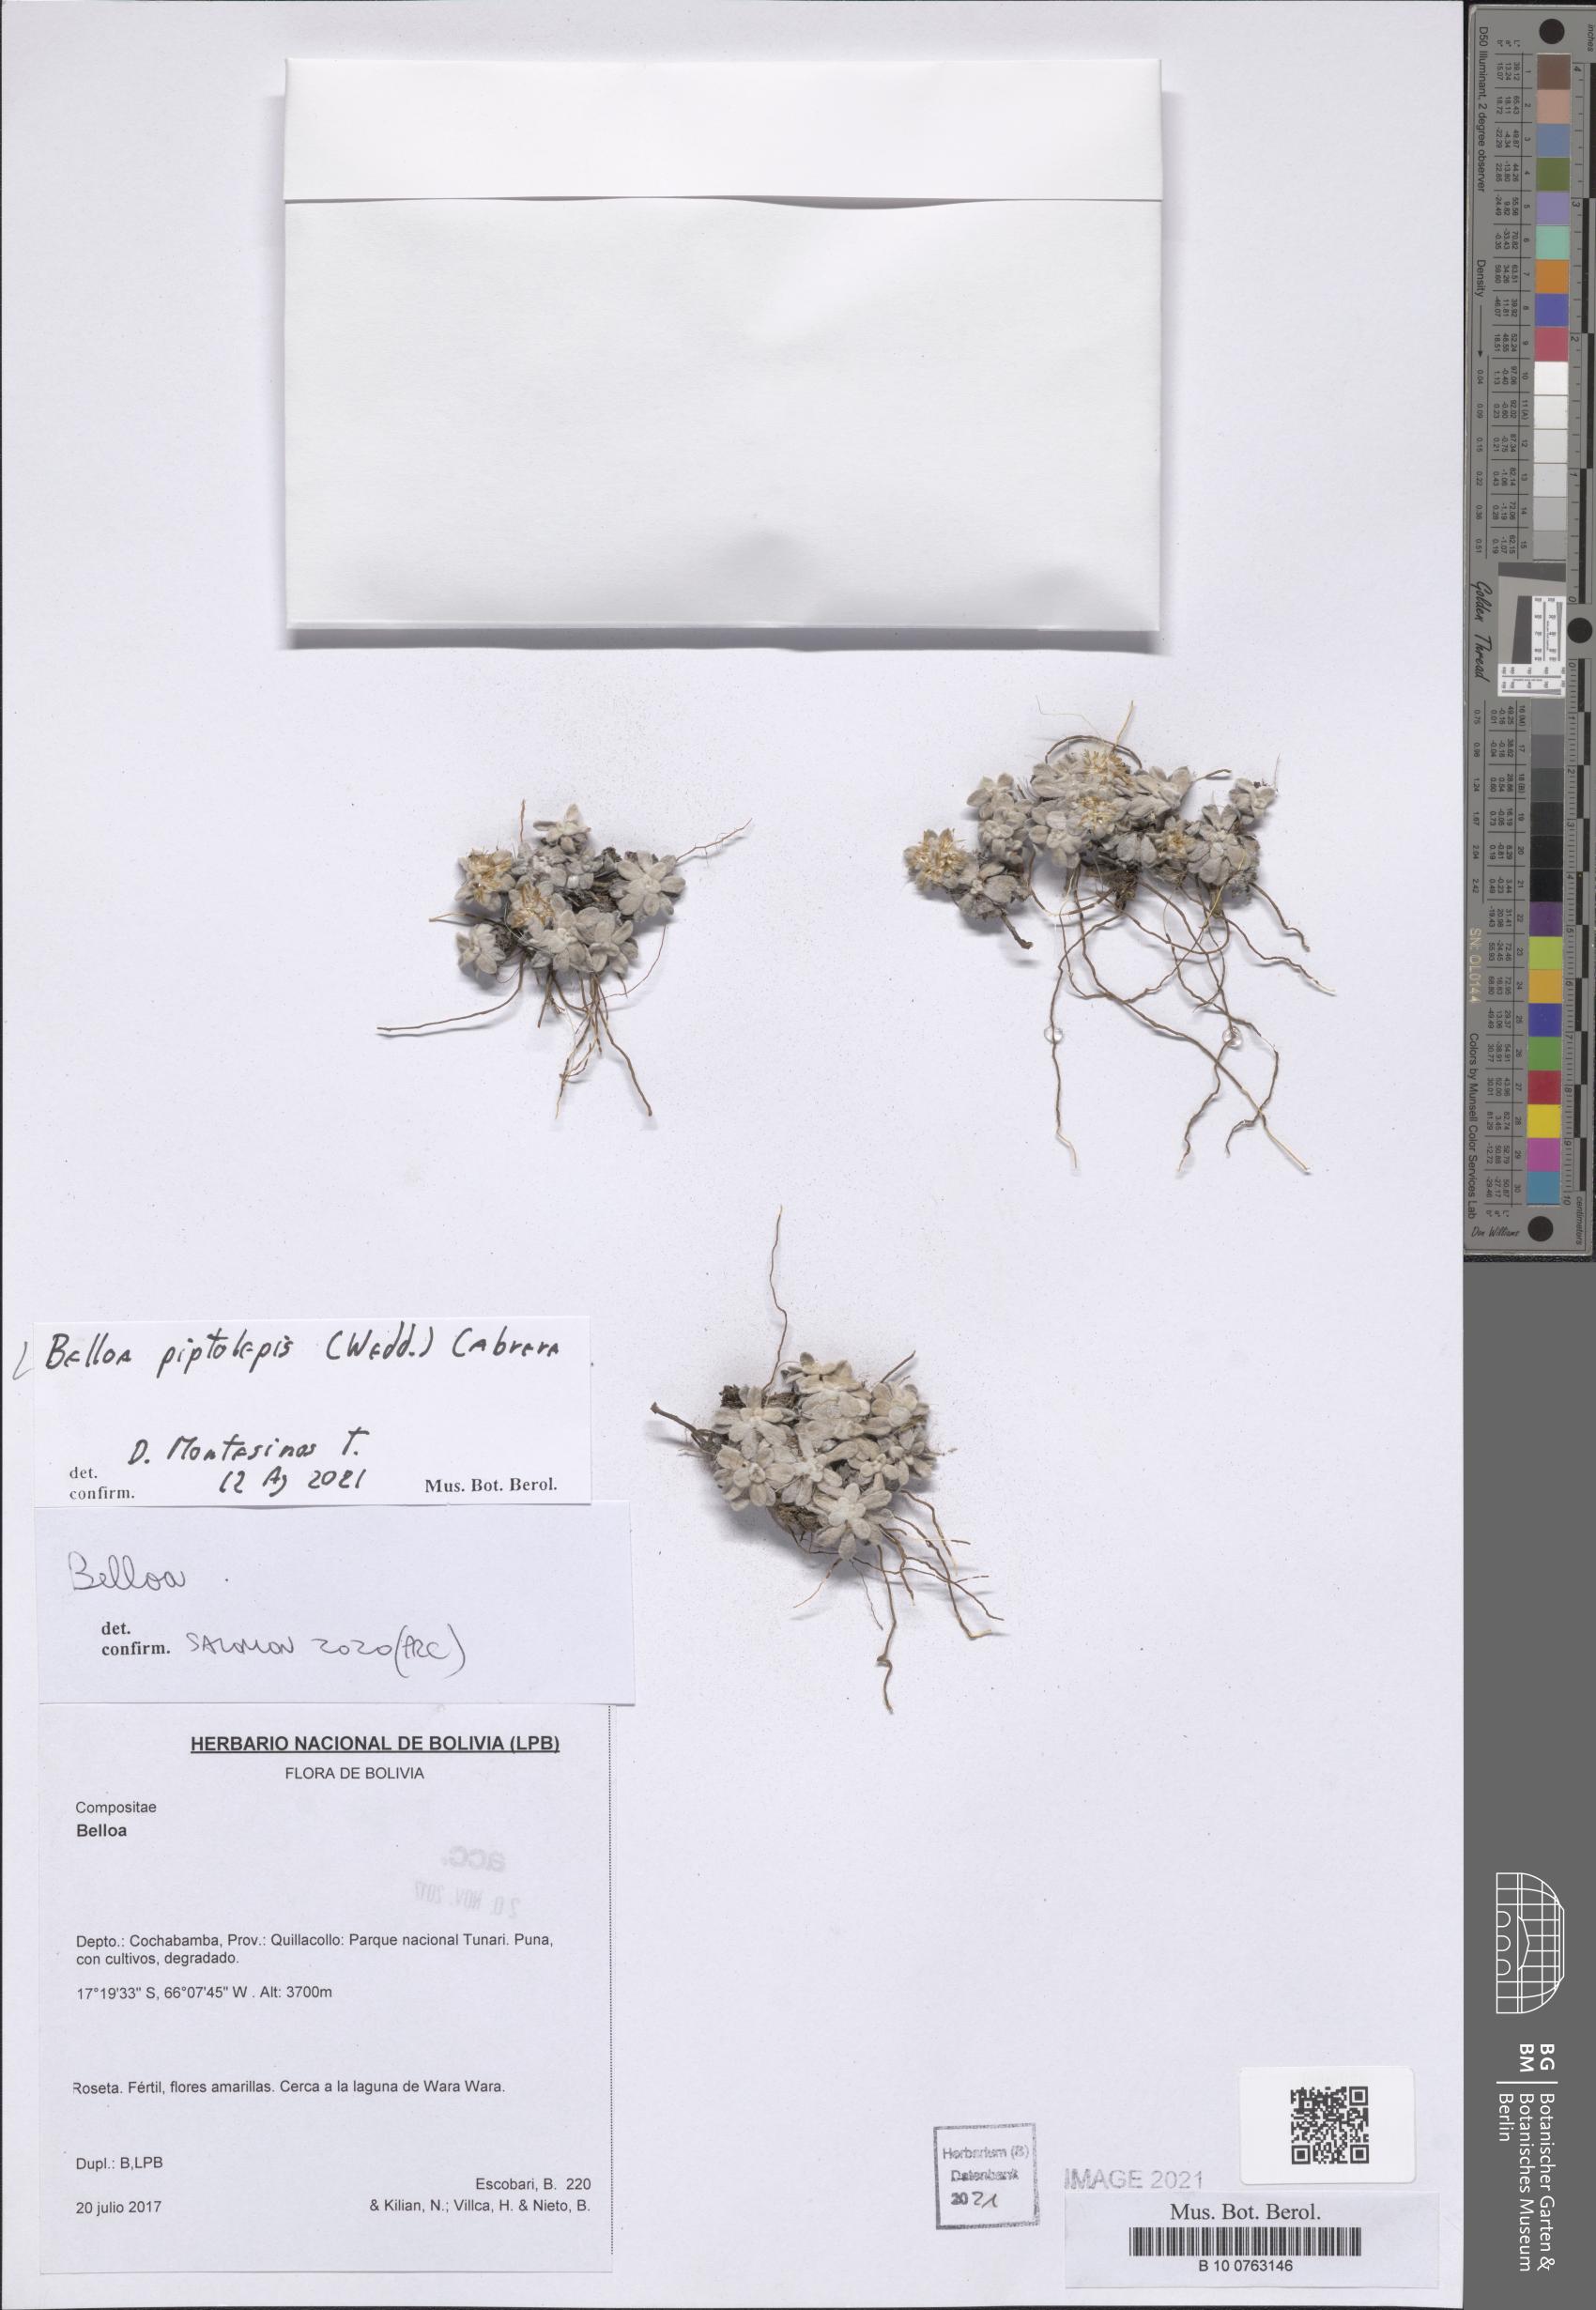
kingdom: Plantae
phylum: Tracheophyta
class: Magnoliopsida
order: Asterales
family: Asteraceae
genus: Mniodes
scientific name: Mniodes piptolepis
